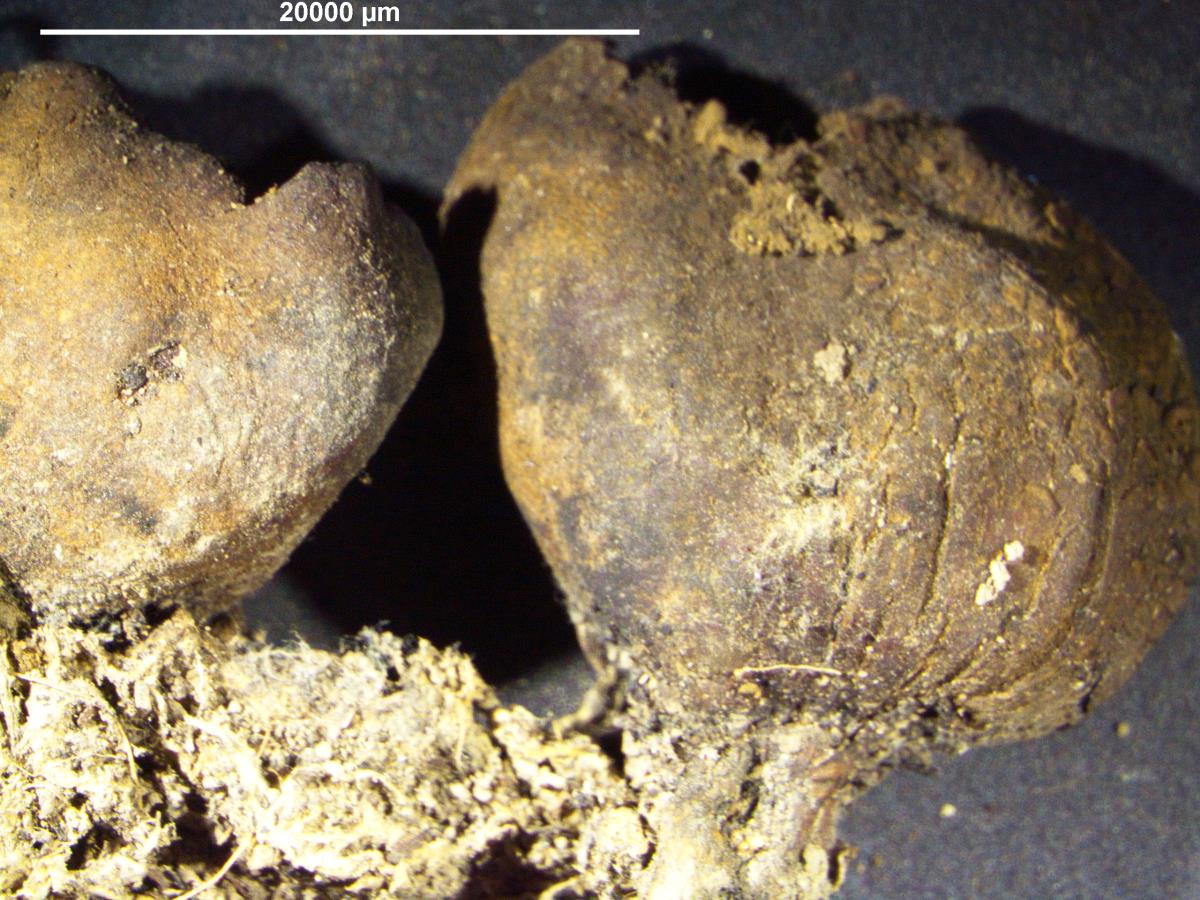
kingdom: Fungi
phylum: Basidiomycota
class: Agaricomycetes
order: Boletales
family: Sclerodermataceae
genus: Scleroderma
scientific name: Scleroderma flavidum
